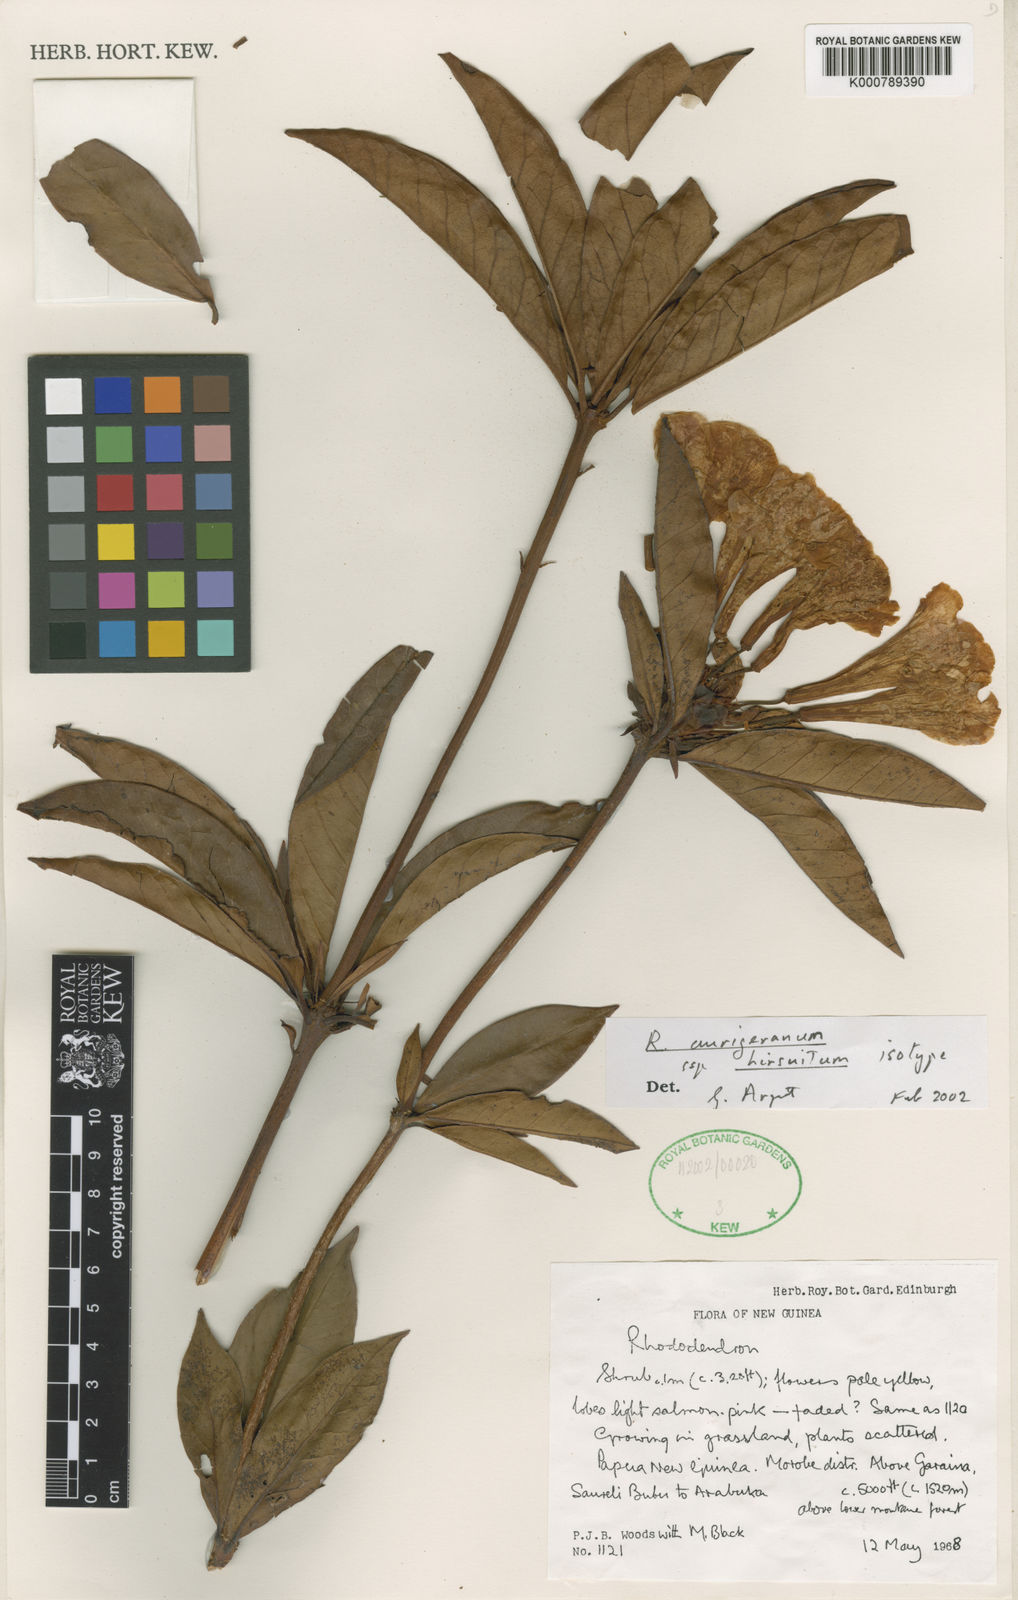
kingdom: Plantae
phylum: Tracheophyta
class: Magnoliopsida
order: Ericales
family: Ericaceae
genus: Rhododendron
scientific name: Rhododendron aurigeranum
